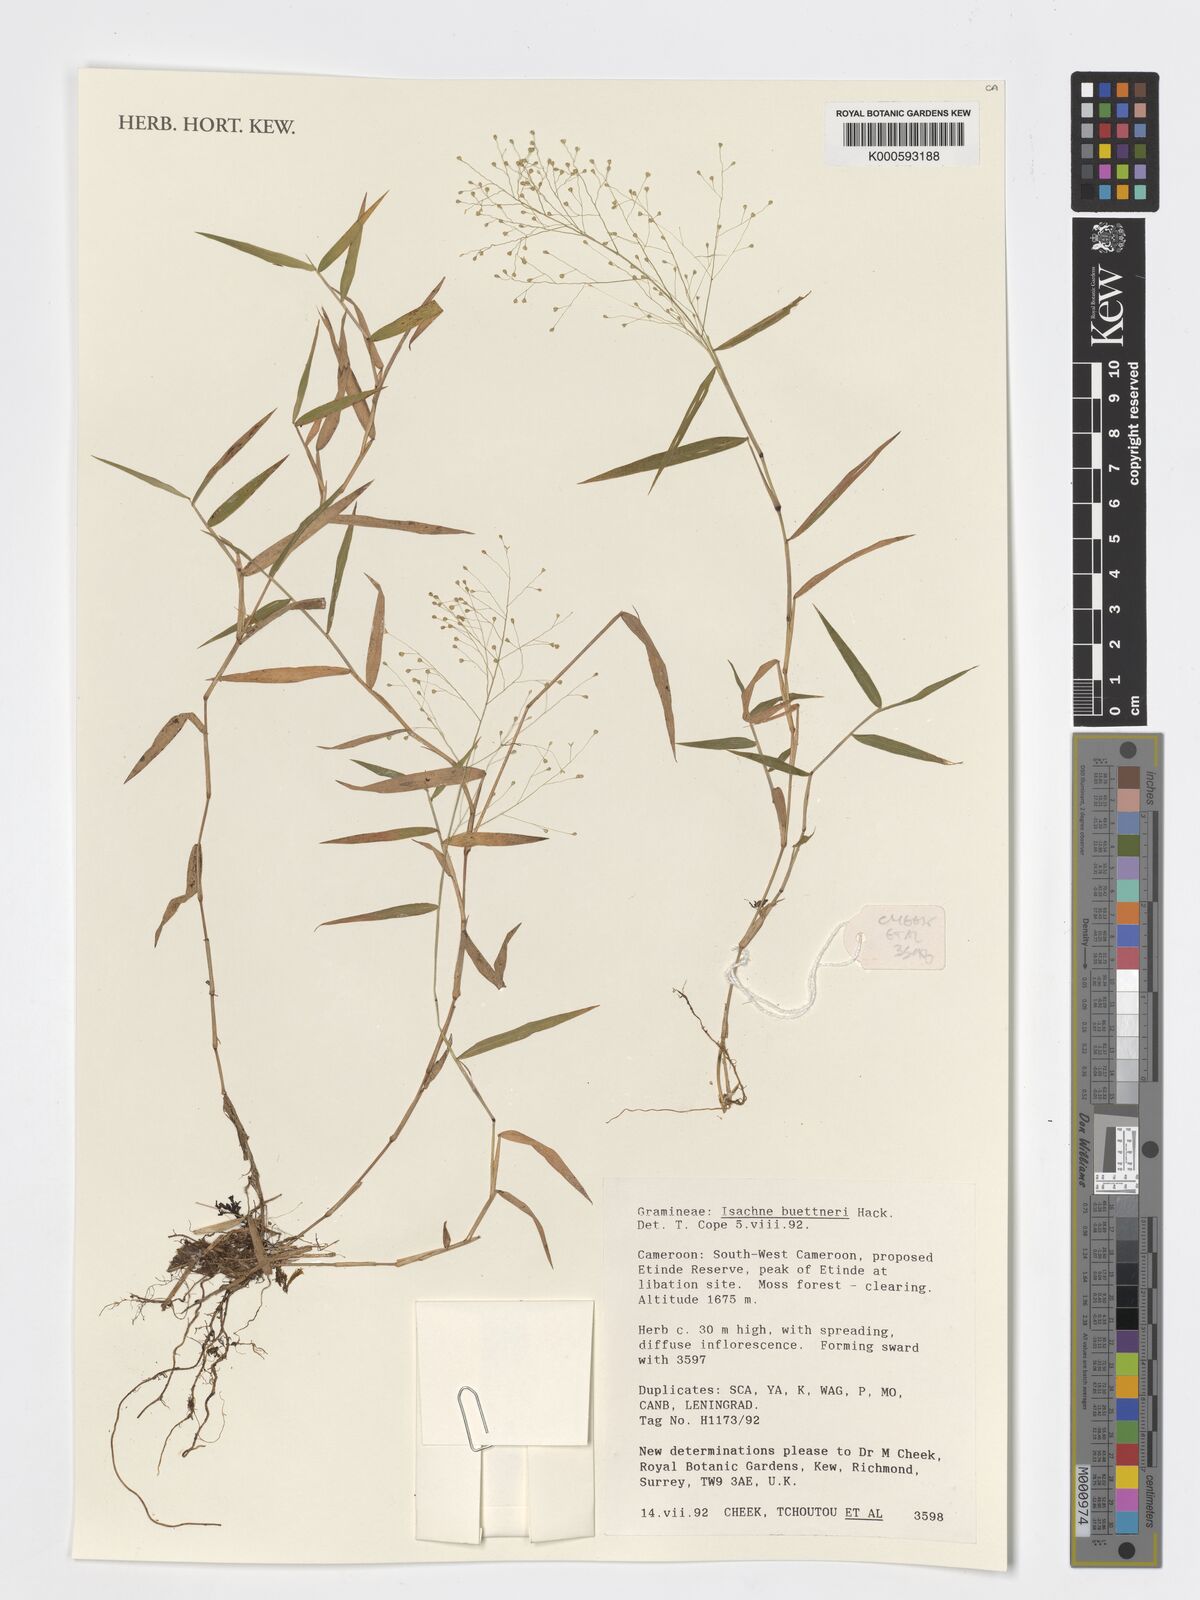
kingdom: Plantae
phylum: Tracheophyta
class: Liliopsida
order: Poales
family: Poaceae
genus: Isachne
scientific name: Isachne albens
